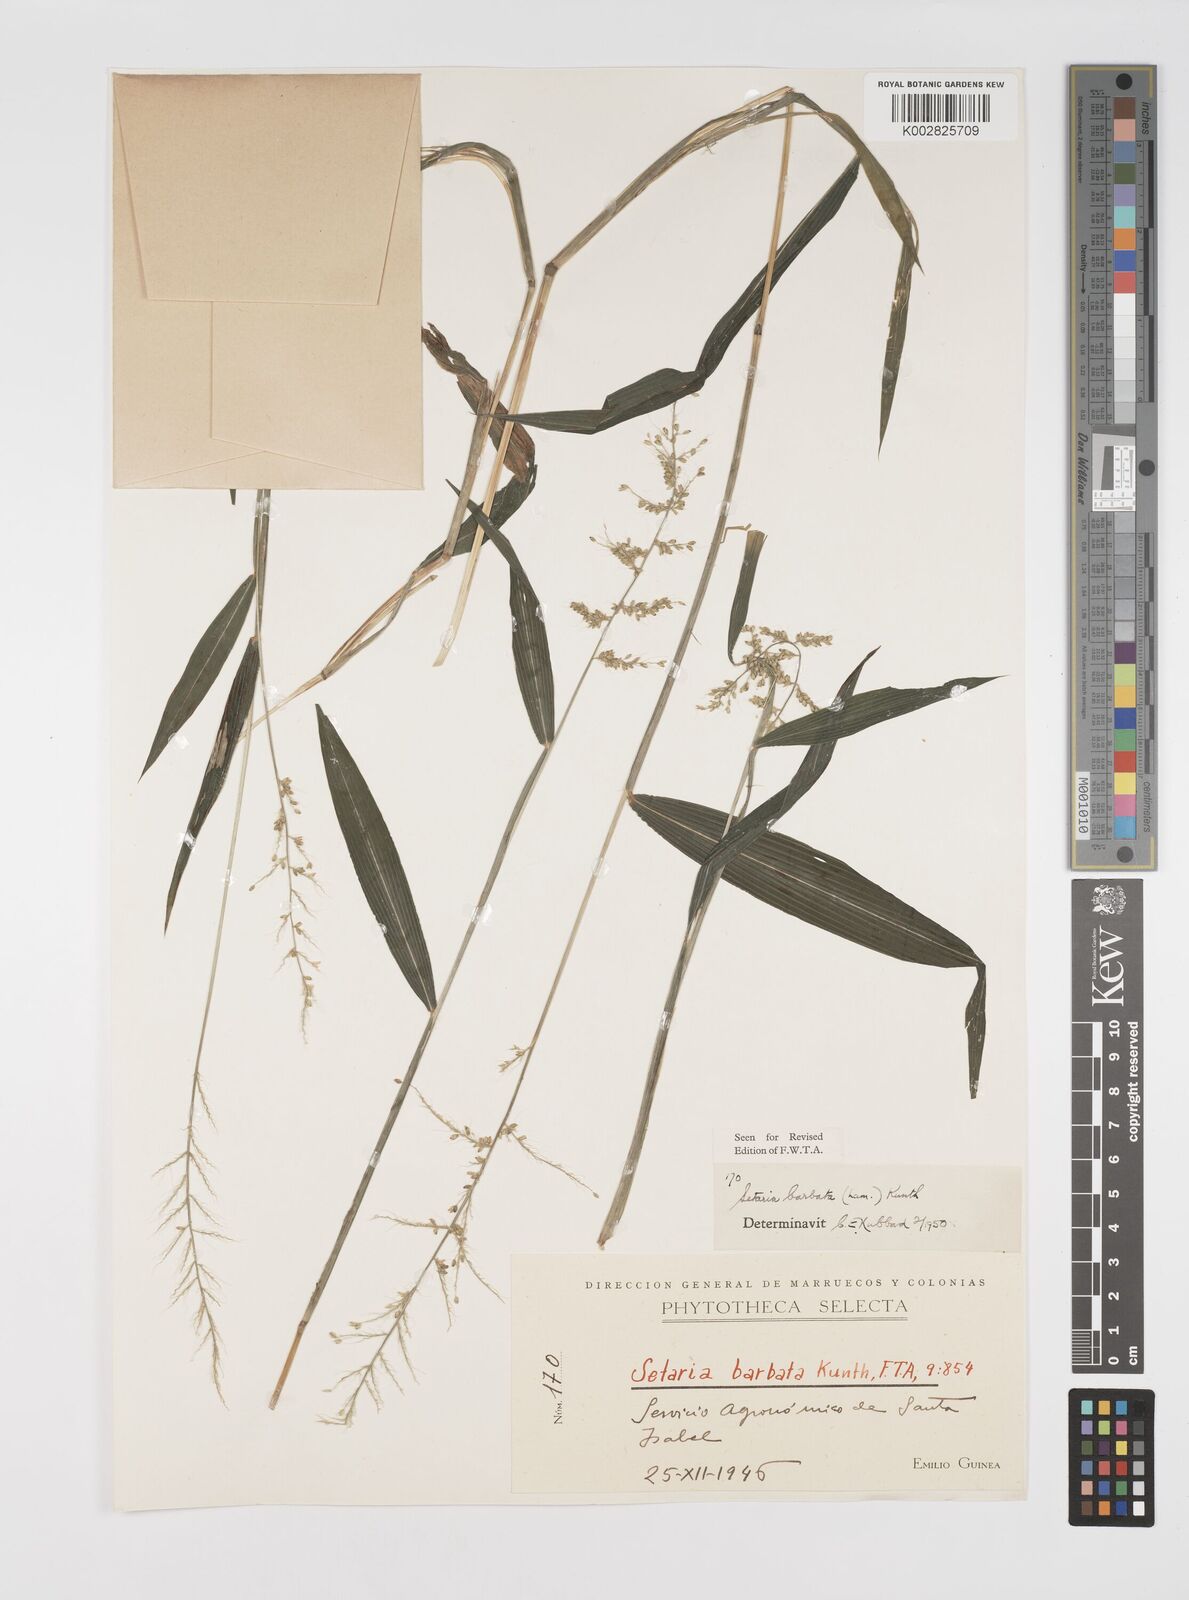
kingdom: Plantae
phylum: Tracheophyta
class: Liliopsida
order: Poales
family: Poaceae
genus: Setaria
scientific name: Setaria barbata
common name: East indian bristlegrass
